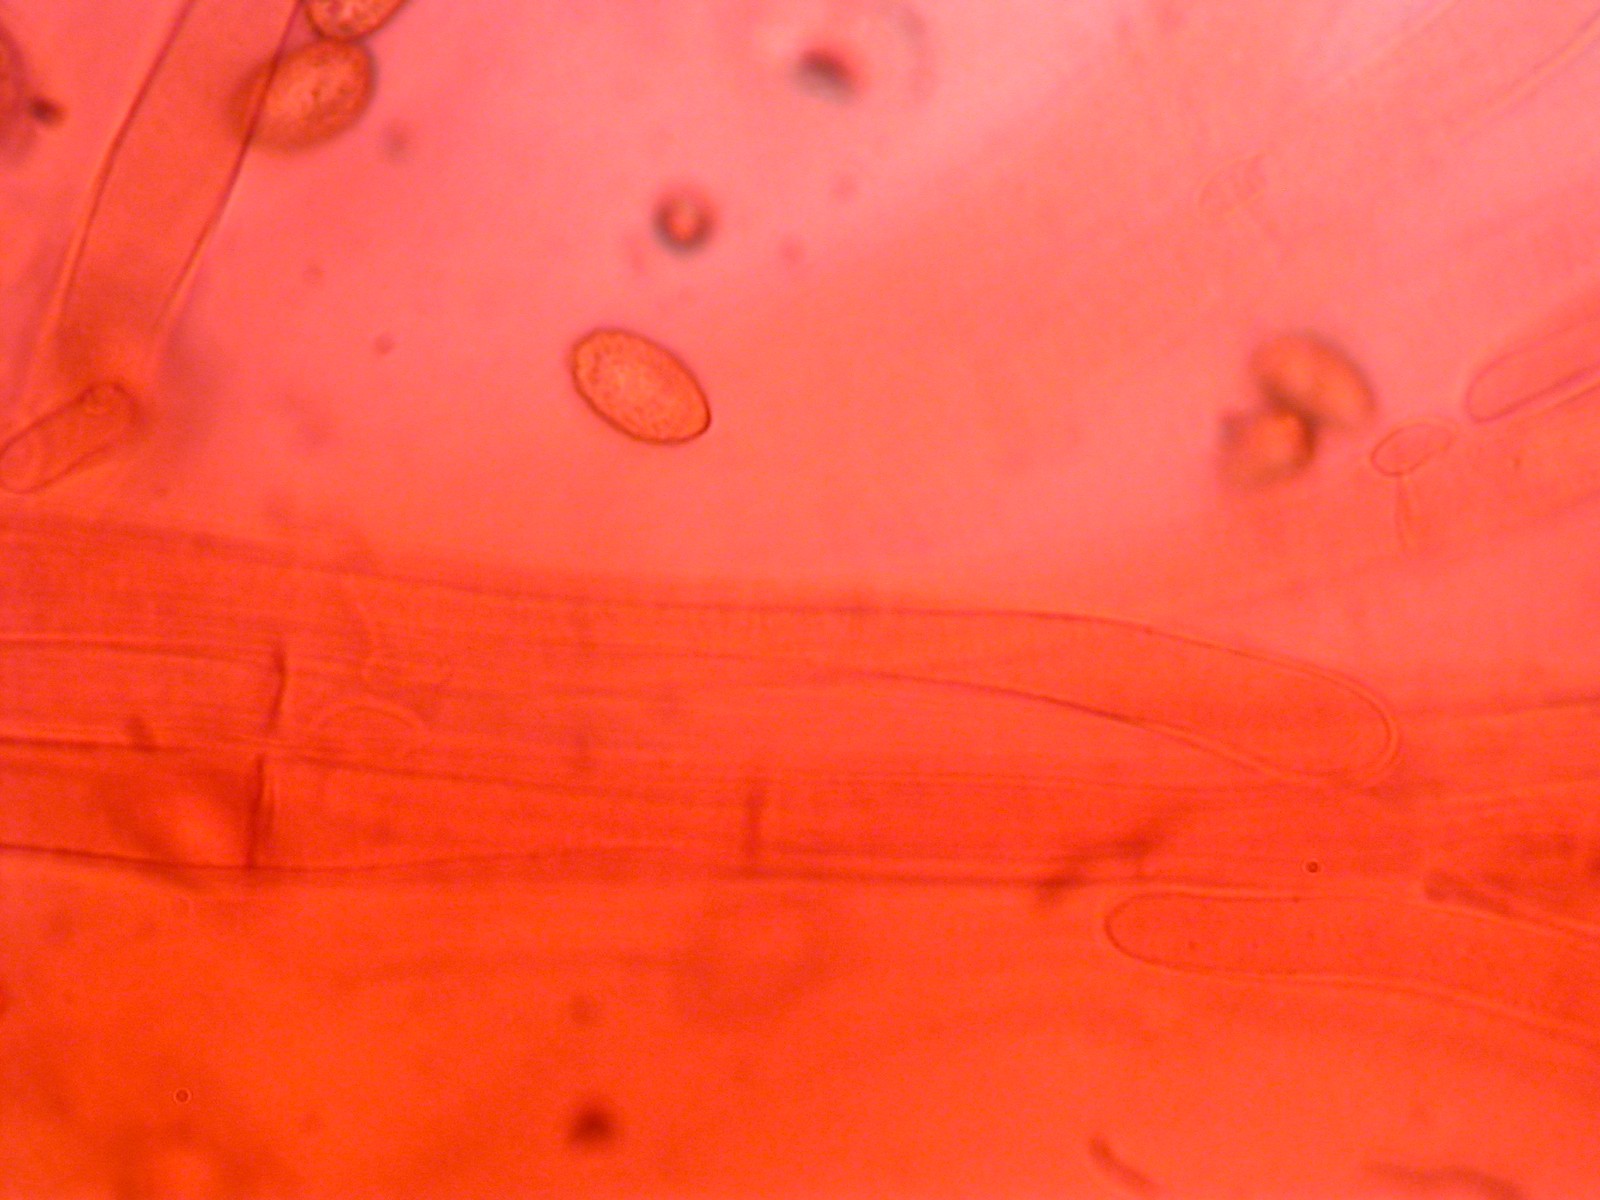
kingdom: Fungi
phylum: Basidiomycota
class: Agaricomycetes
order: Agaricales
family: Cortinariaceae
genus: Cortinarius
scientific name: Cortinarius
